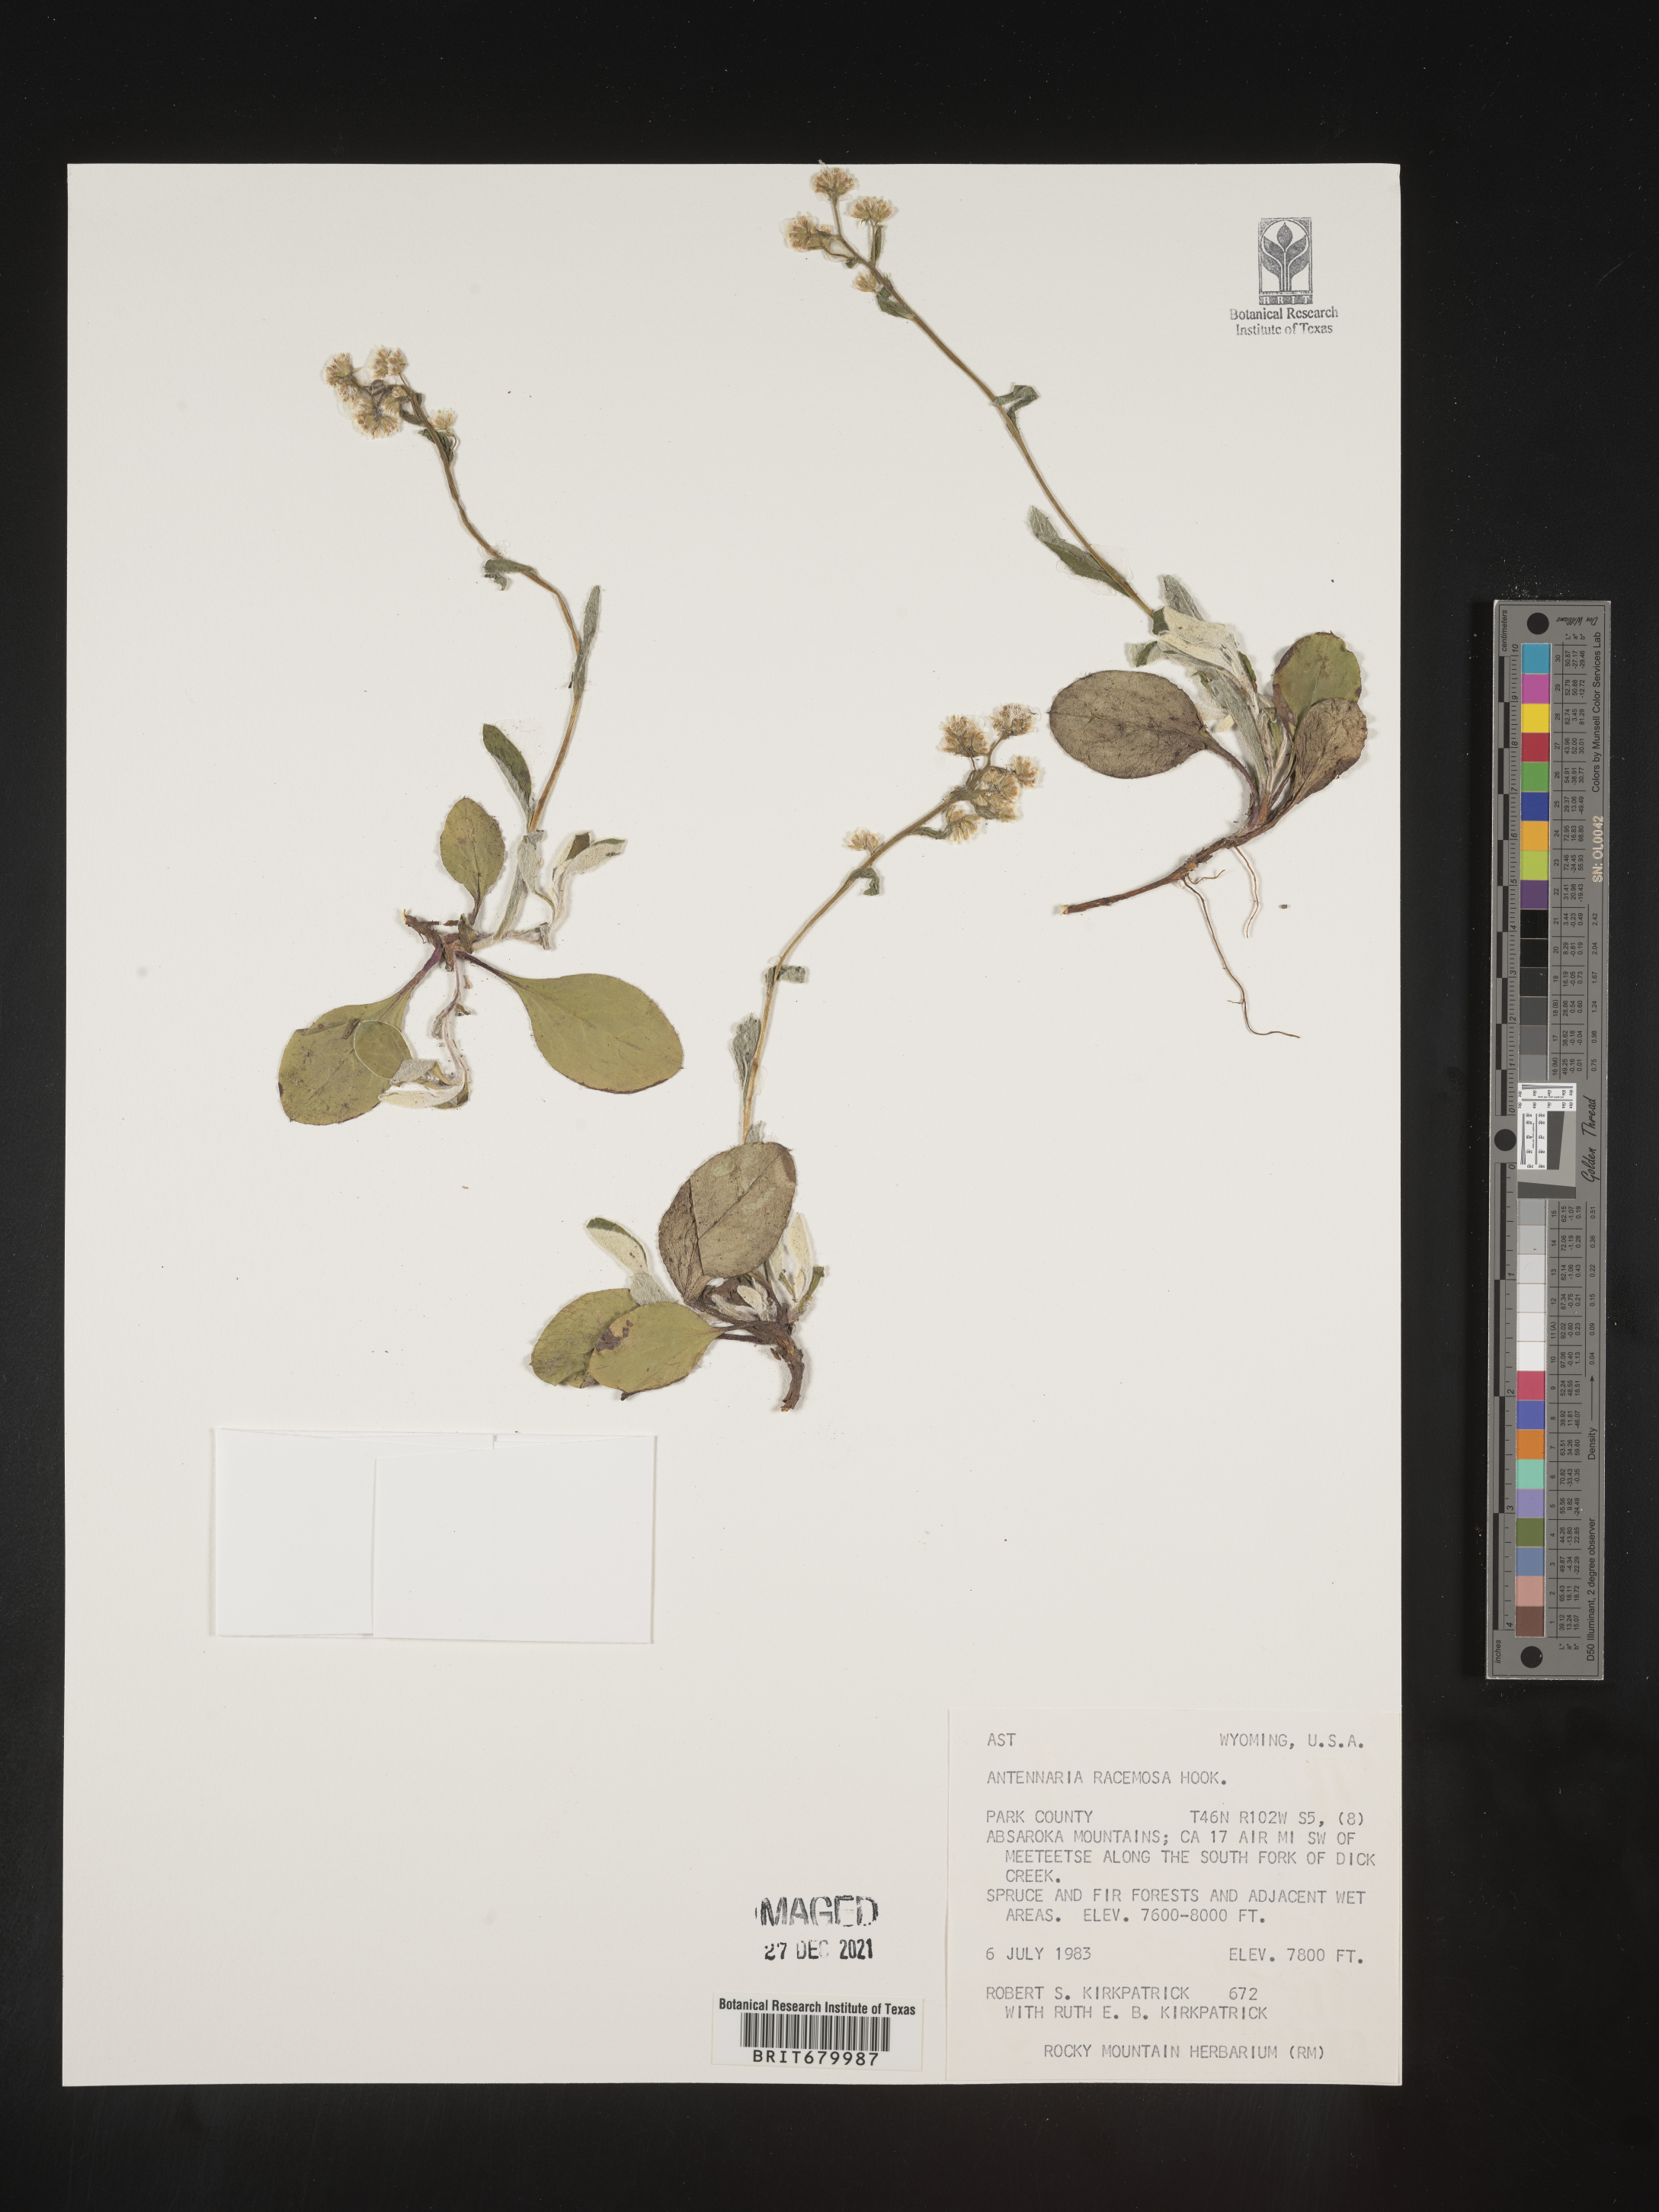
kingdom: Plantae
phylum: Tracheophyta
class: Magnoliopsida
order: Asterales
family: Asteraceae
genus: Antennaria
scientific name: Antennaria racemosa
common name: Racemose pussytoes
